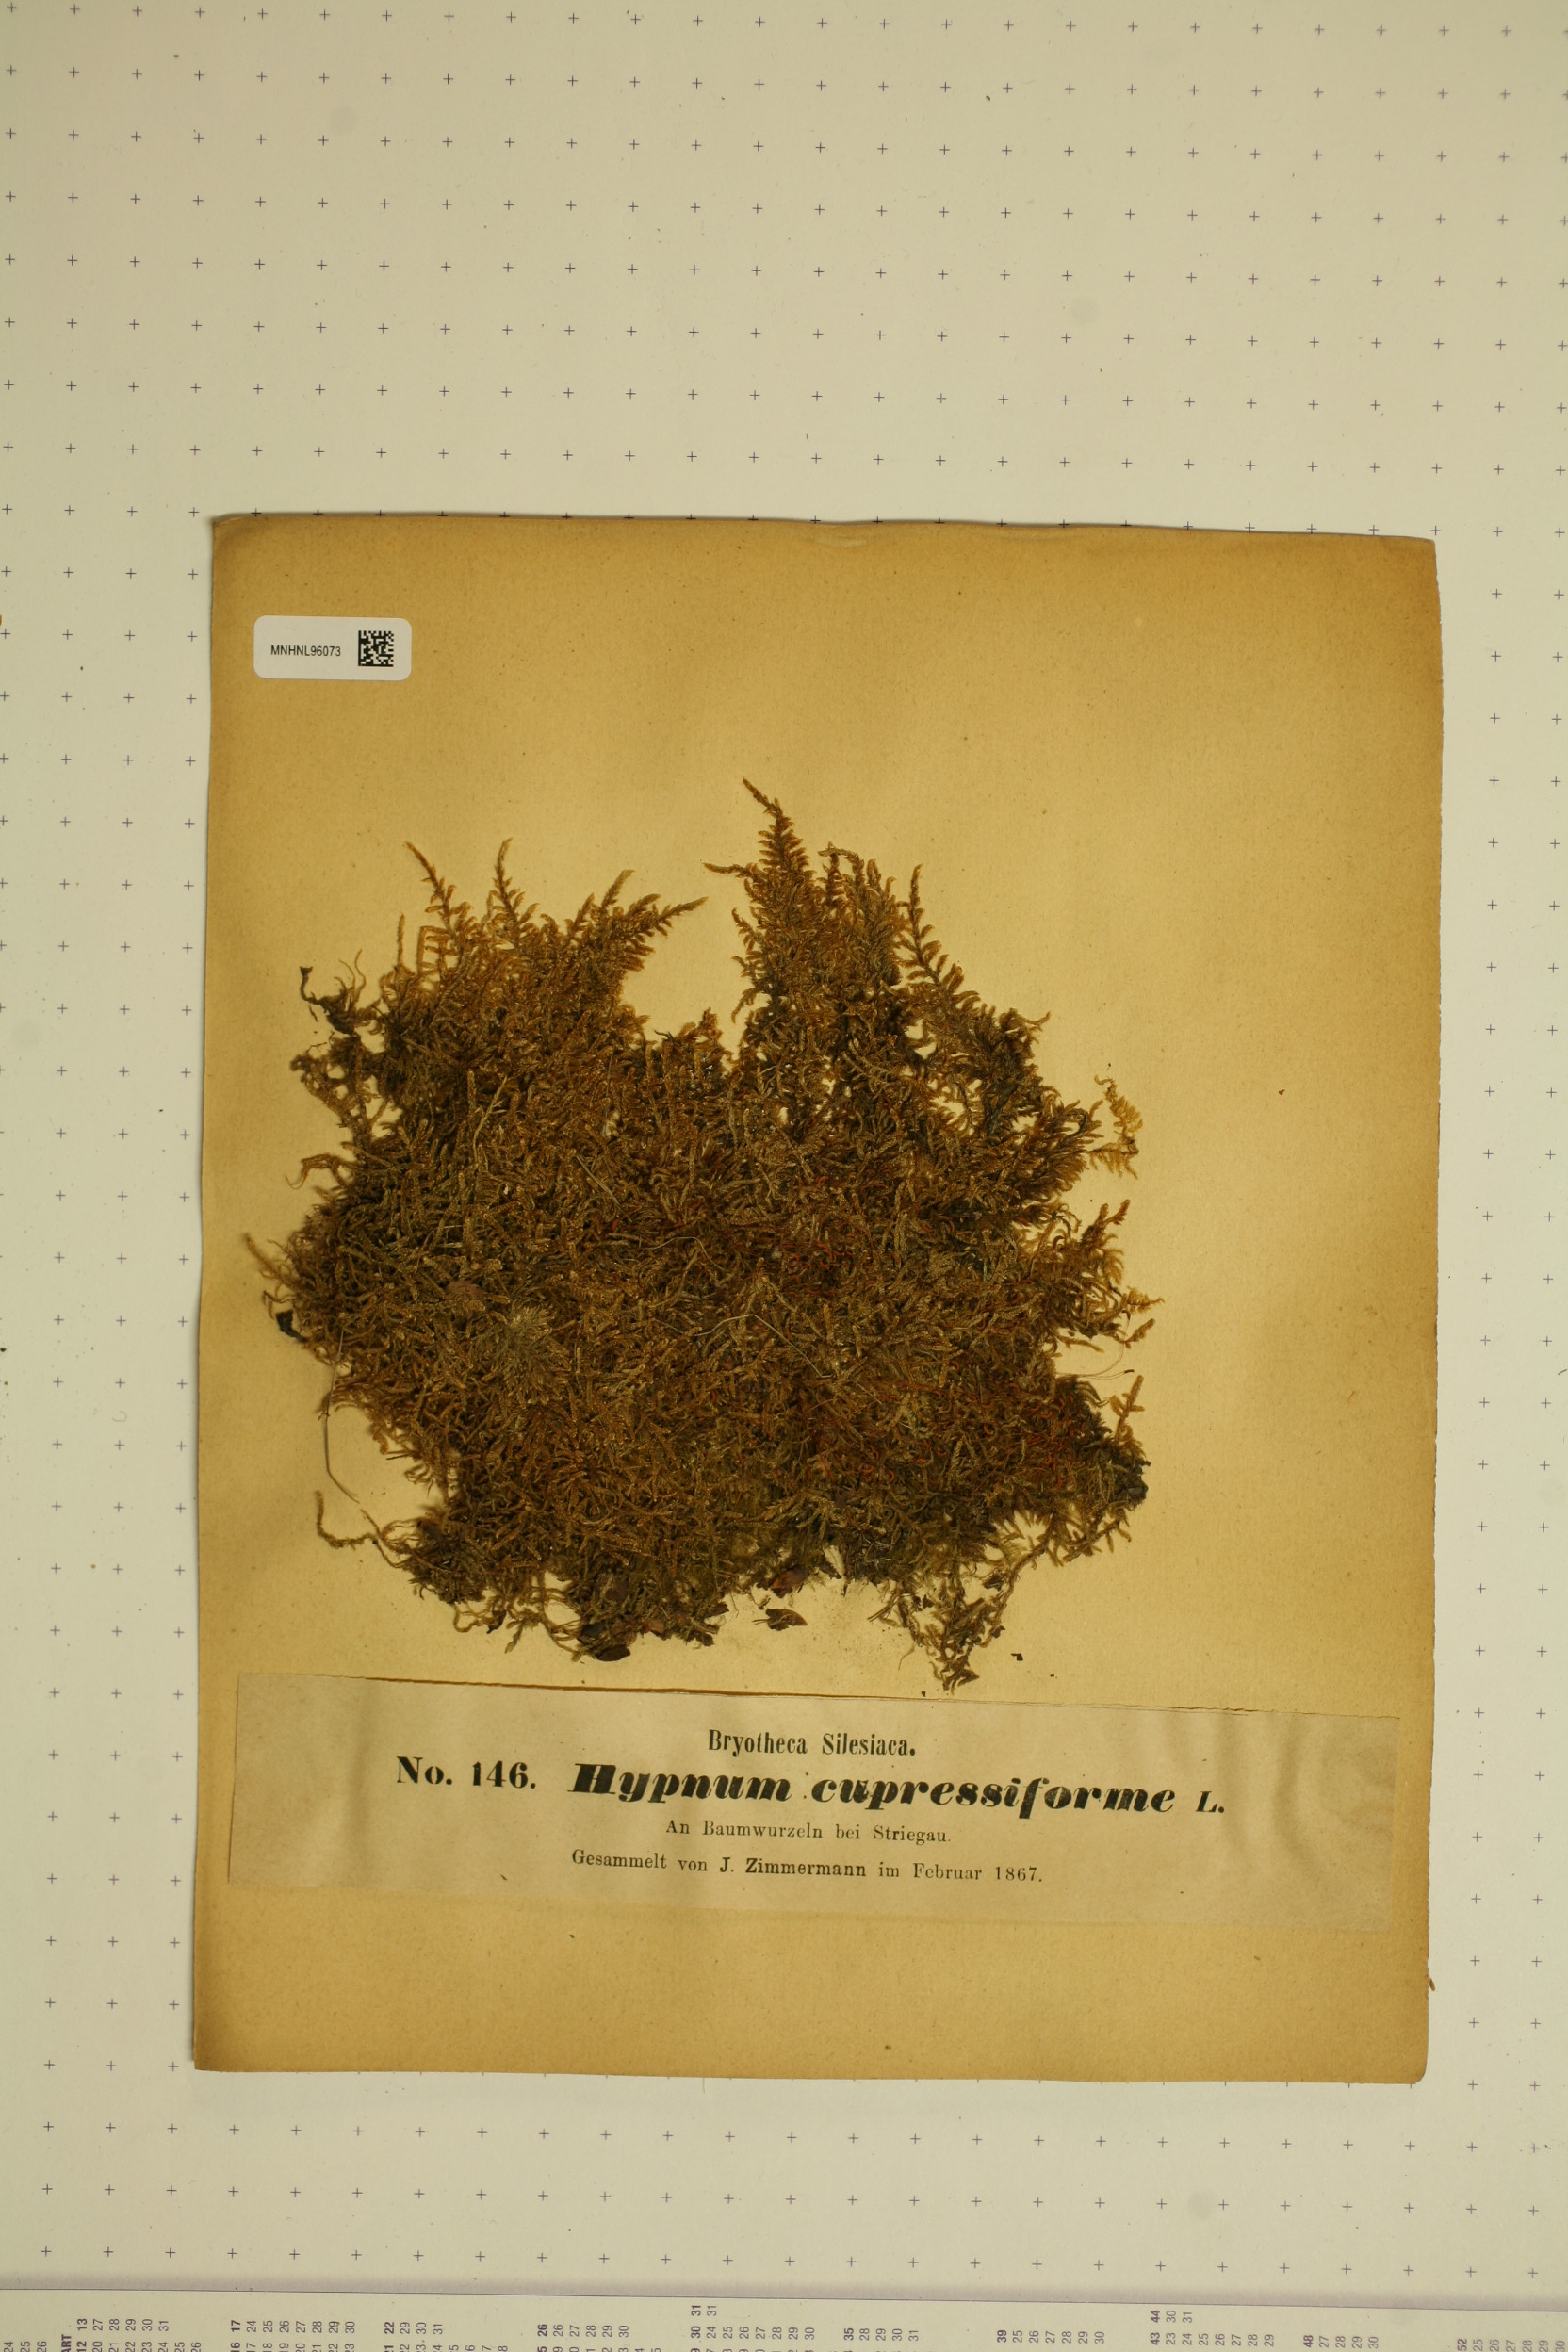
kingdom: Plantae
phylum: Bryophyta
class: Bryopsida
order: Hypnales
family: Hypnaceae
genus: Hypnum
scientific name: Hypnum cupressiforme
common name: Cypress-leaved plait-moss
